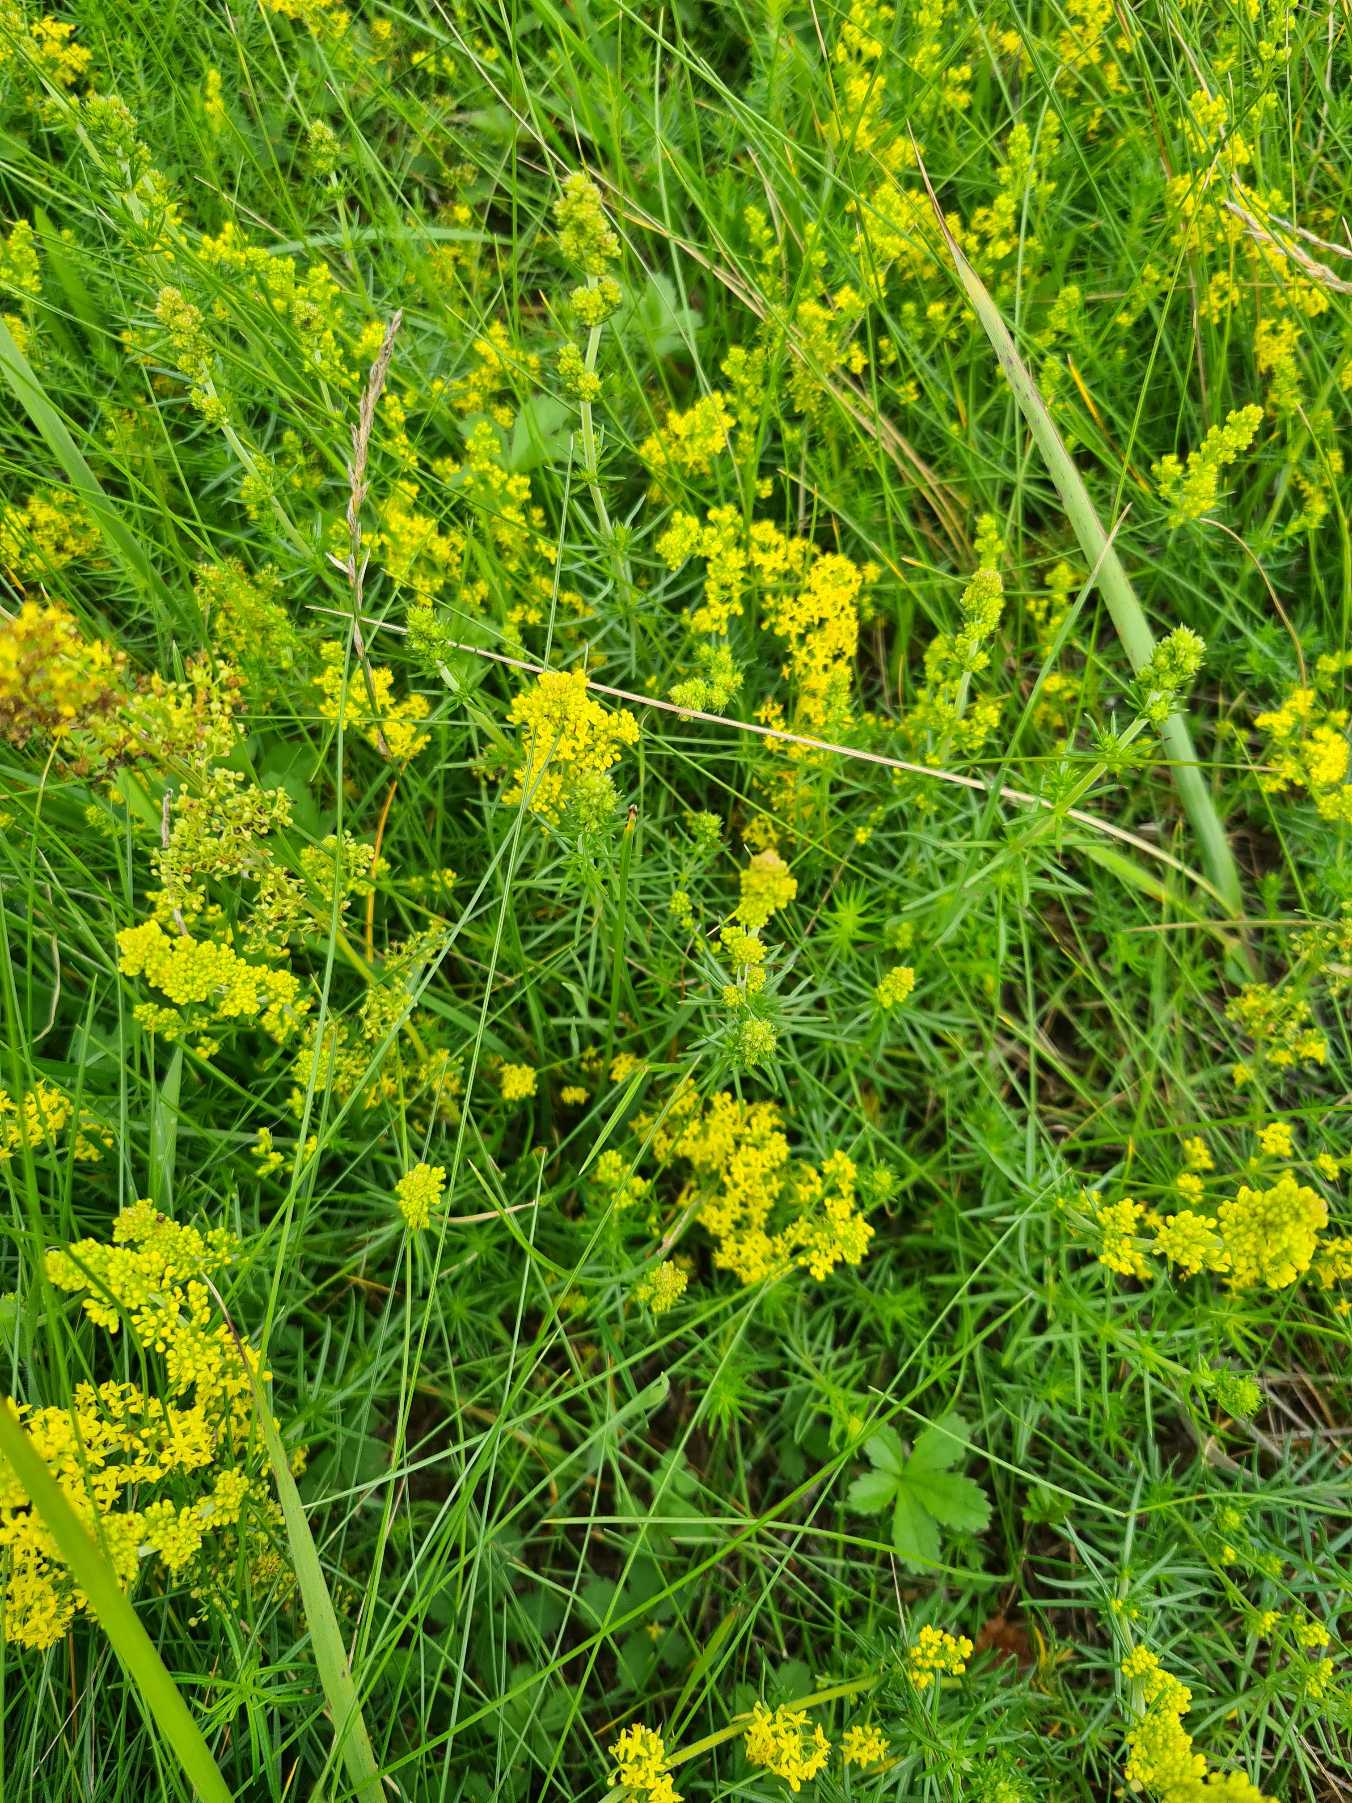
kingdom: Plantae
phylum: Tracheophyta
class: Magnoliopsida
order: Gentianales
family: Rubiaceae
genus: Galium
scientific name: Galium verum
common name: Gul snerre
